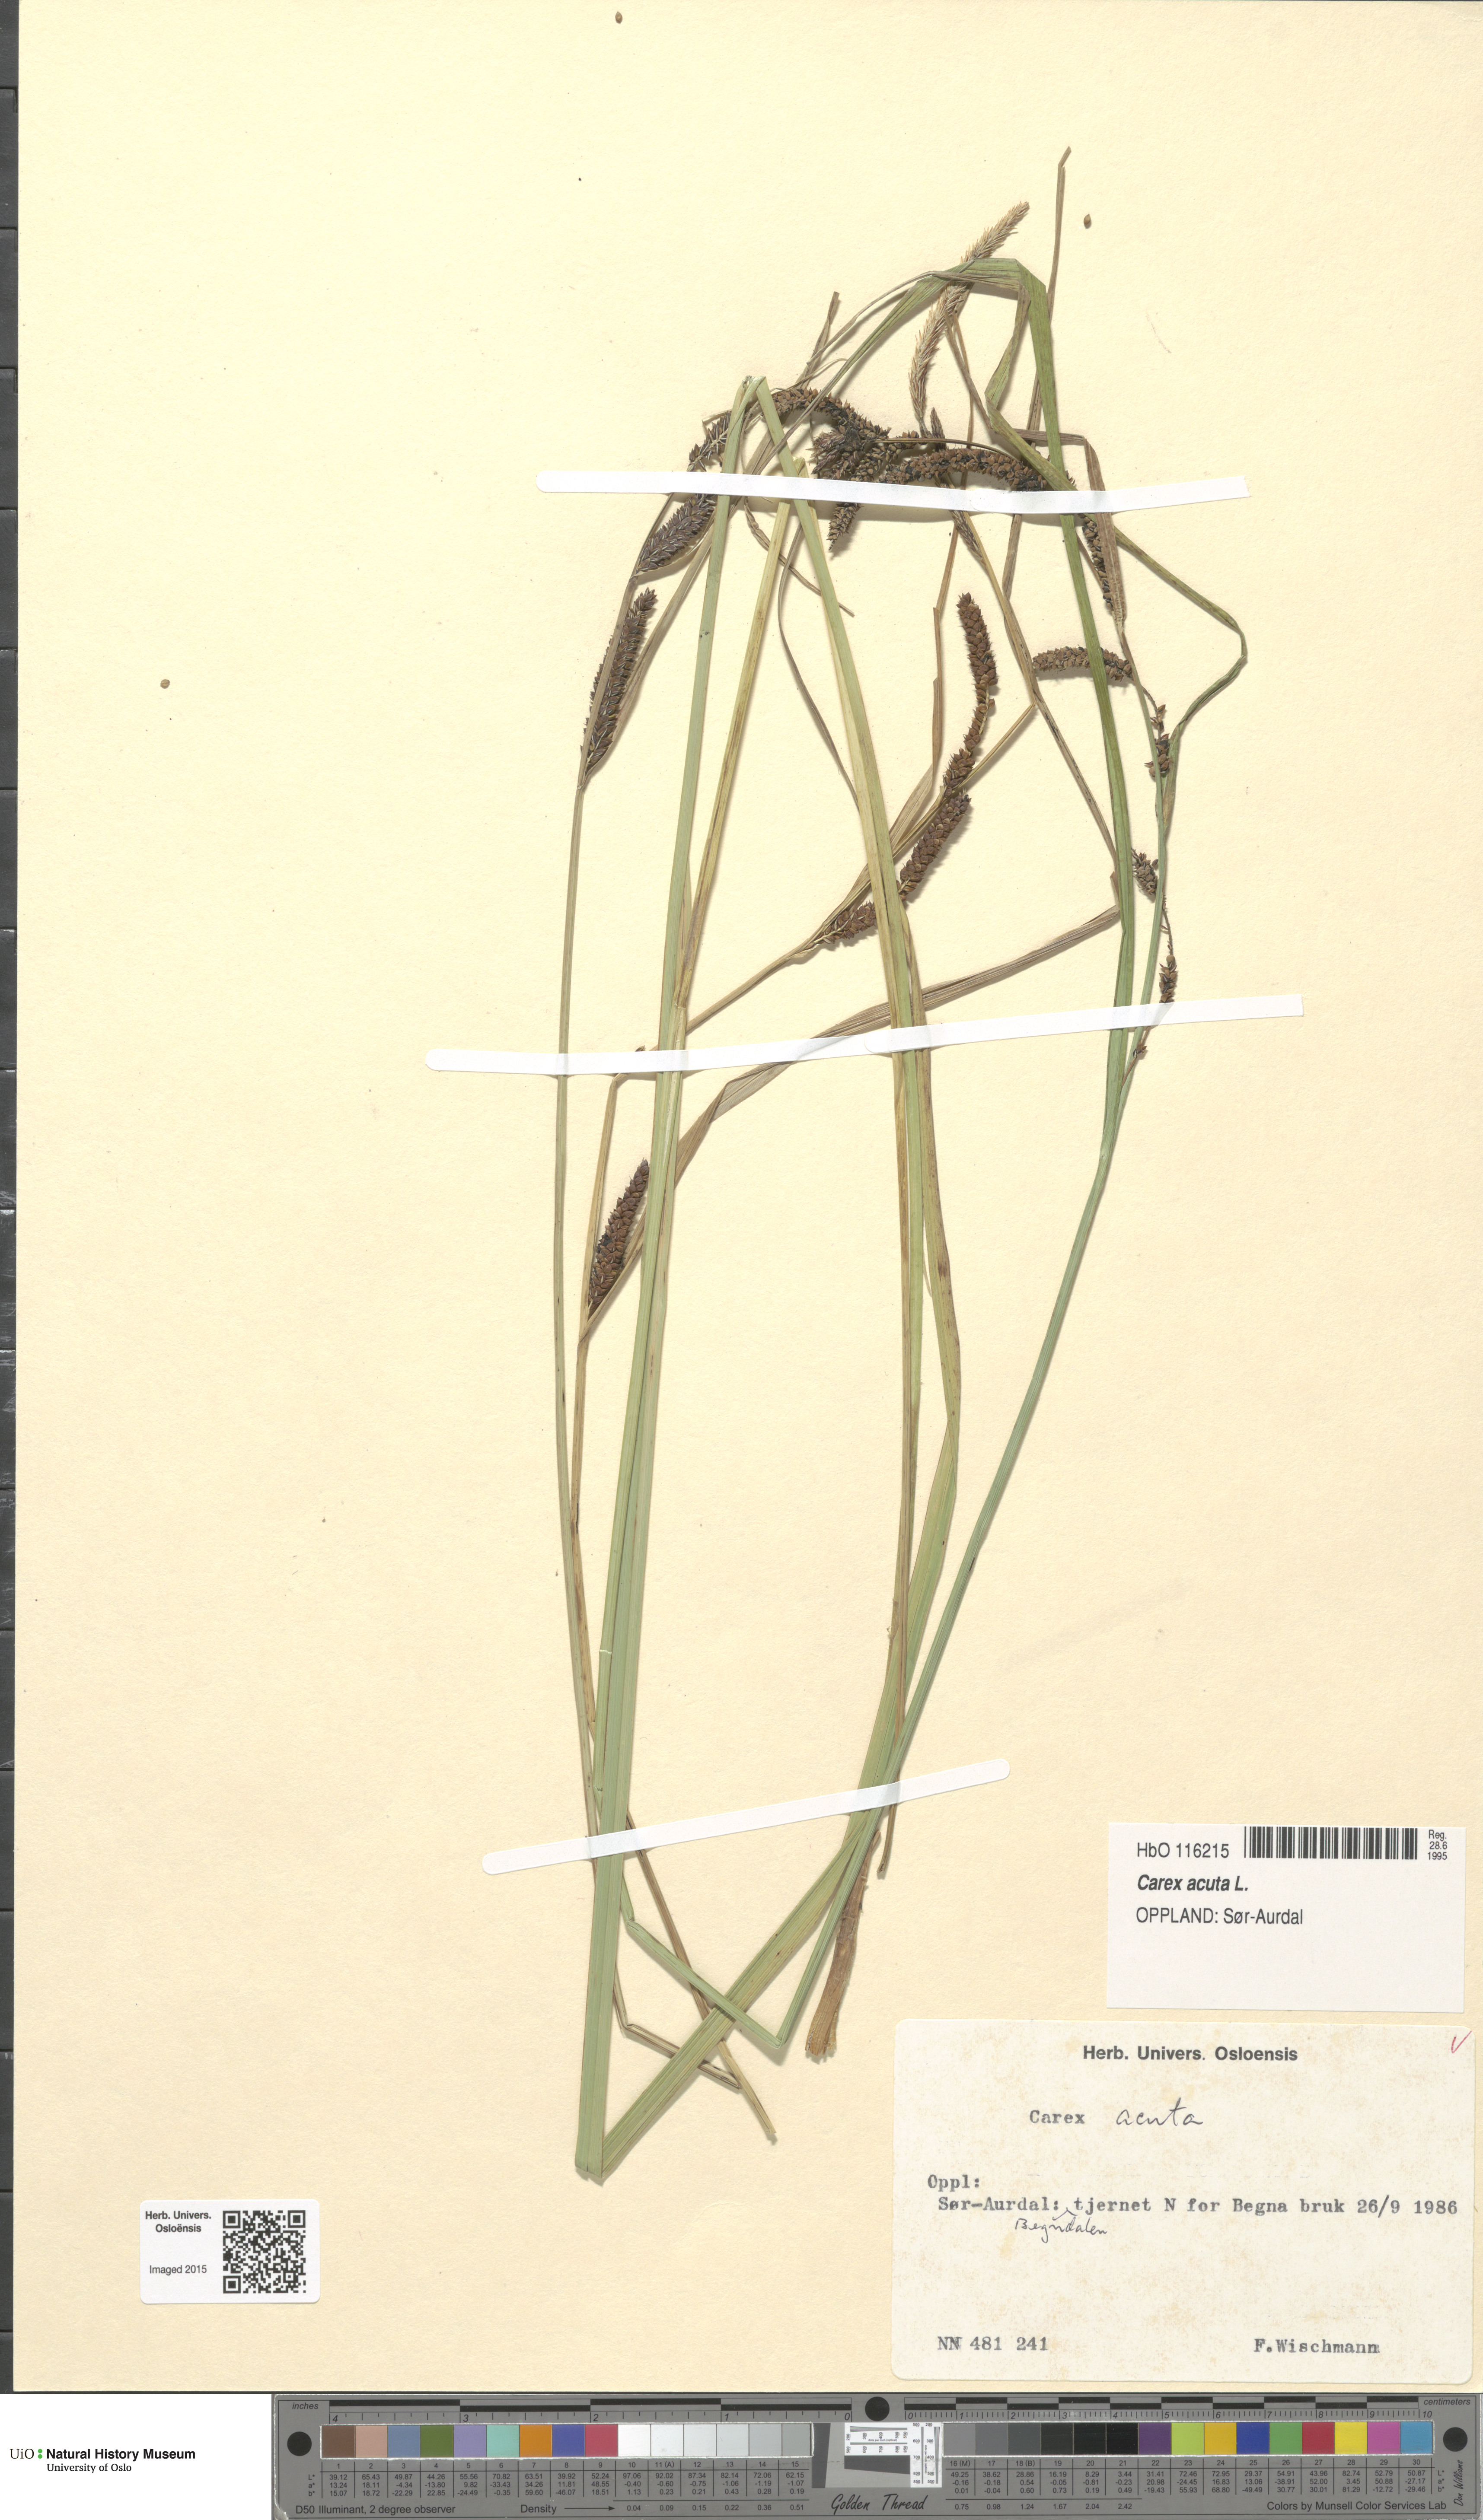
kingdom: Plantae
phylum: Tracheophyta
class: Liliopsida
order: Poales
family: Cyperaceae
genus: Carex
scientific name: Carex acuta
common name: Slender tufted-sedge
